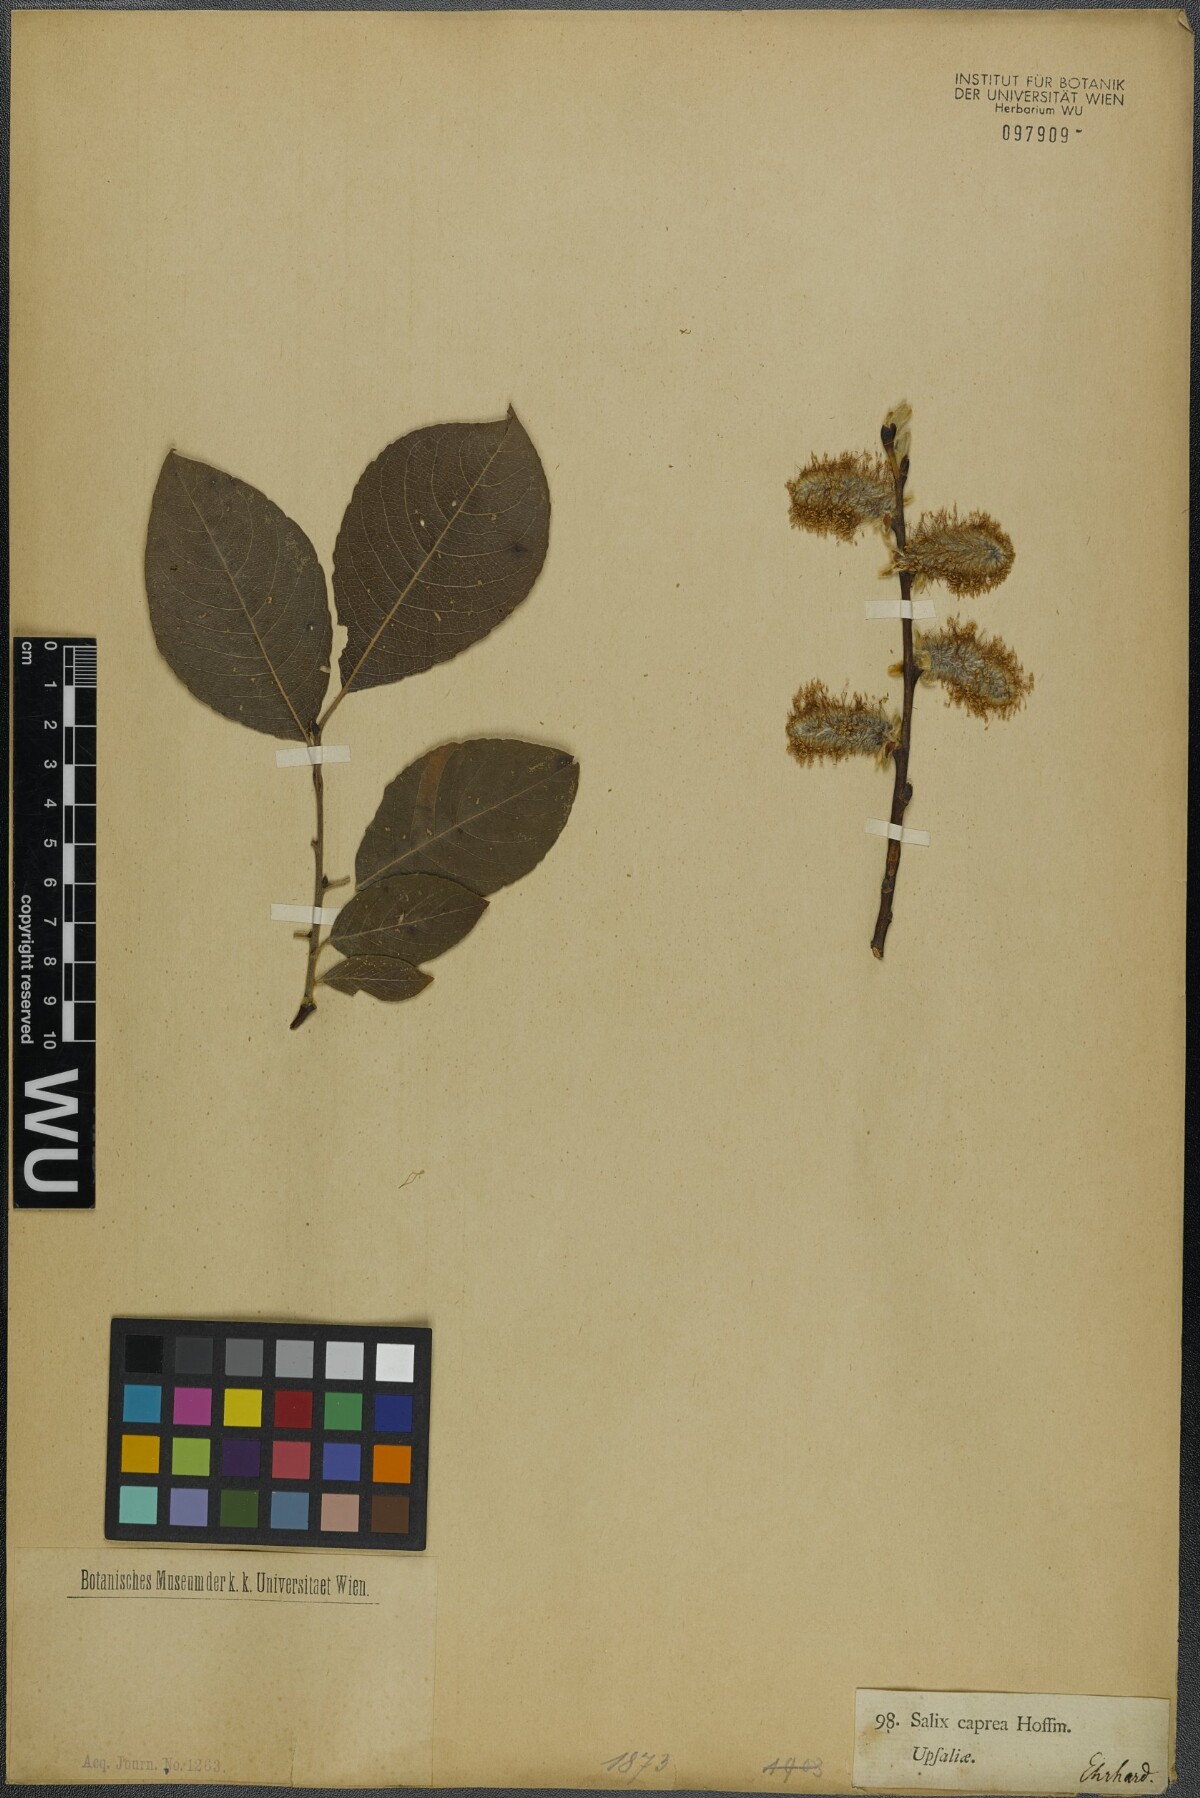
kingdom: Plantae
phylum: Tracheophyta
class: Magnoliopsida
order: Malpighiales
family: Salicaceae
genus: Salix
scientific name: Salix caprea
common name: Goat willow
